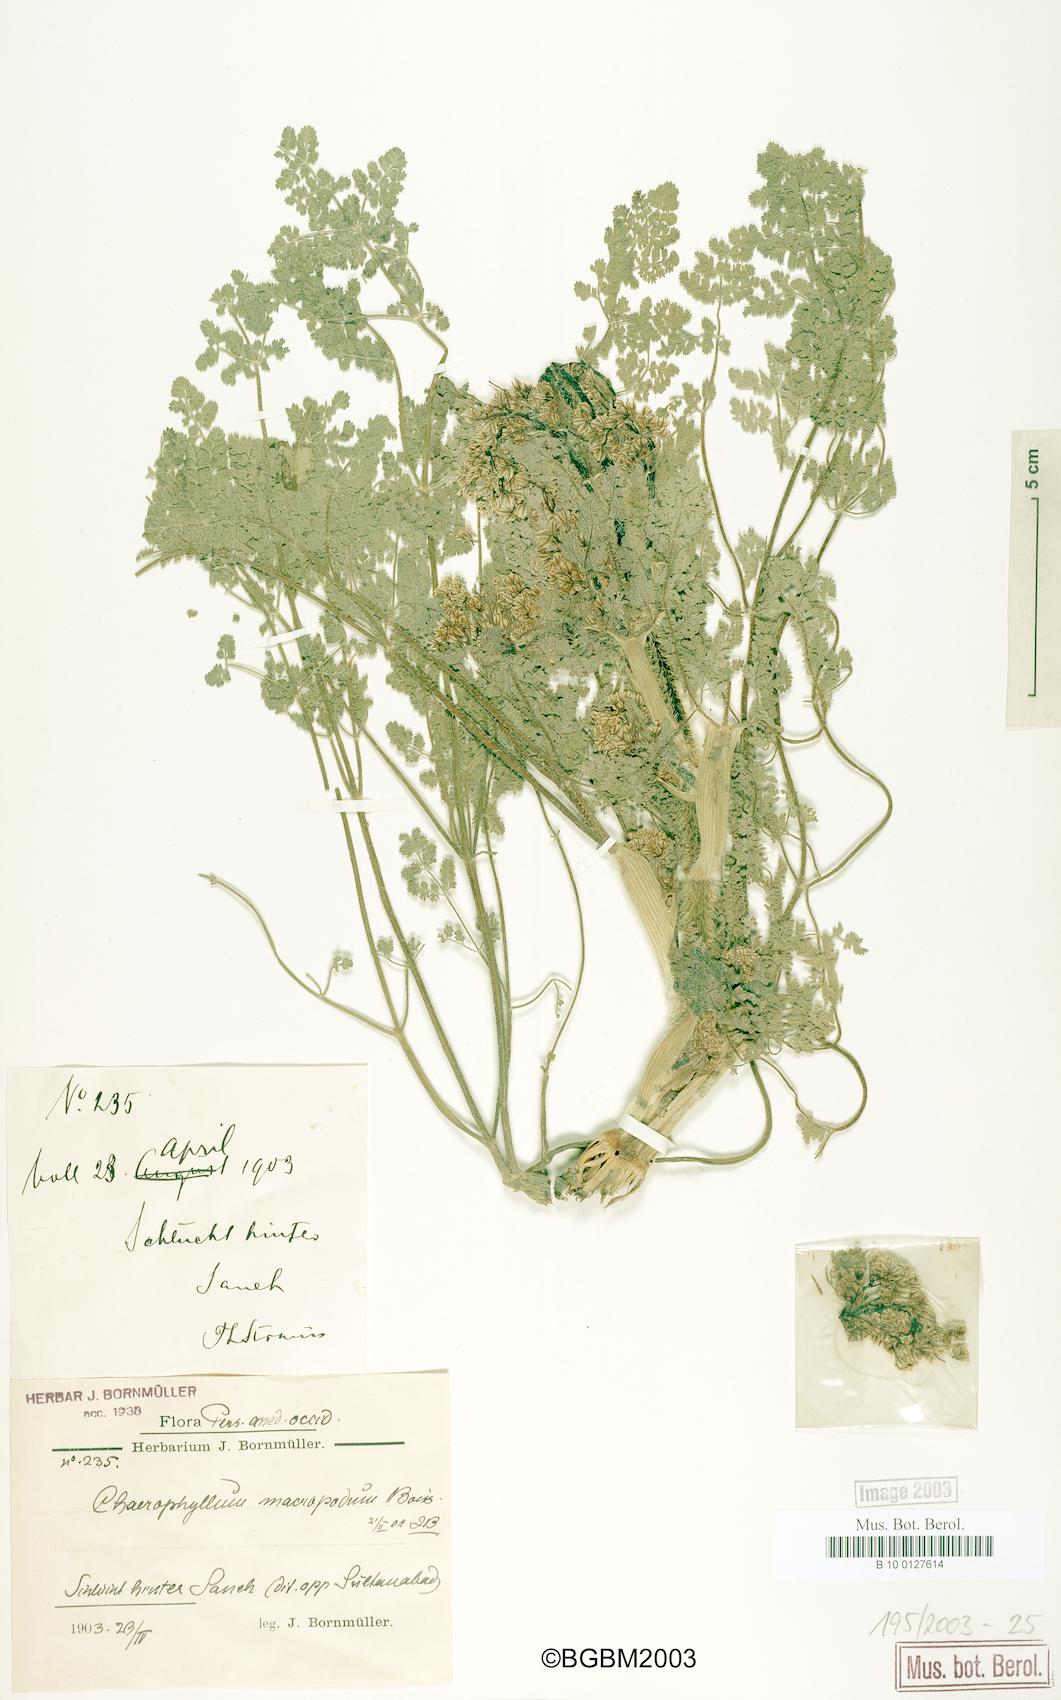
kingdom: Plantae
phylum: Tracheophyta
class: Magnoliopsida
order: Apiales
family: Apiaceae
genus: Chaerophyllum
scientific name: Chaerophyllum macropodum
